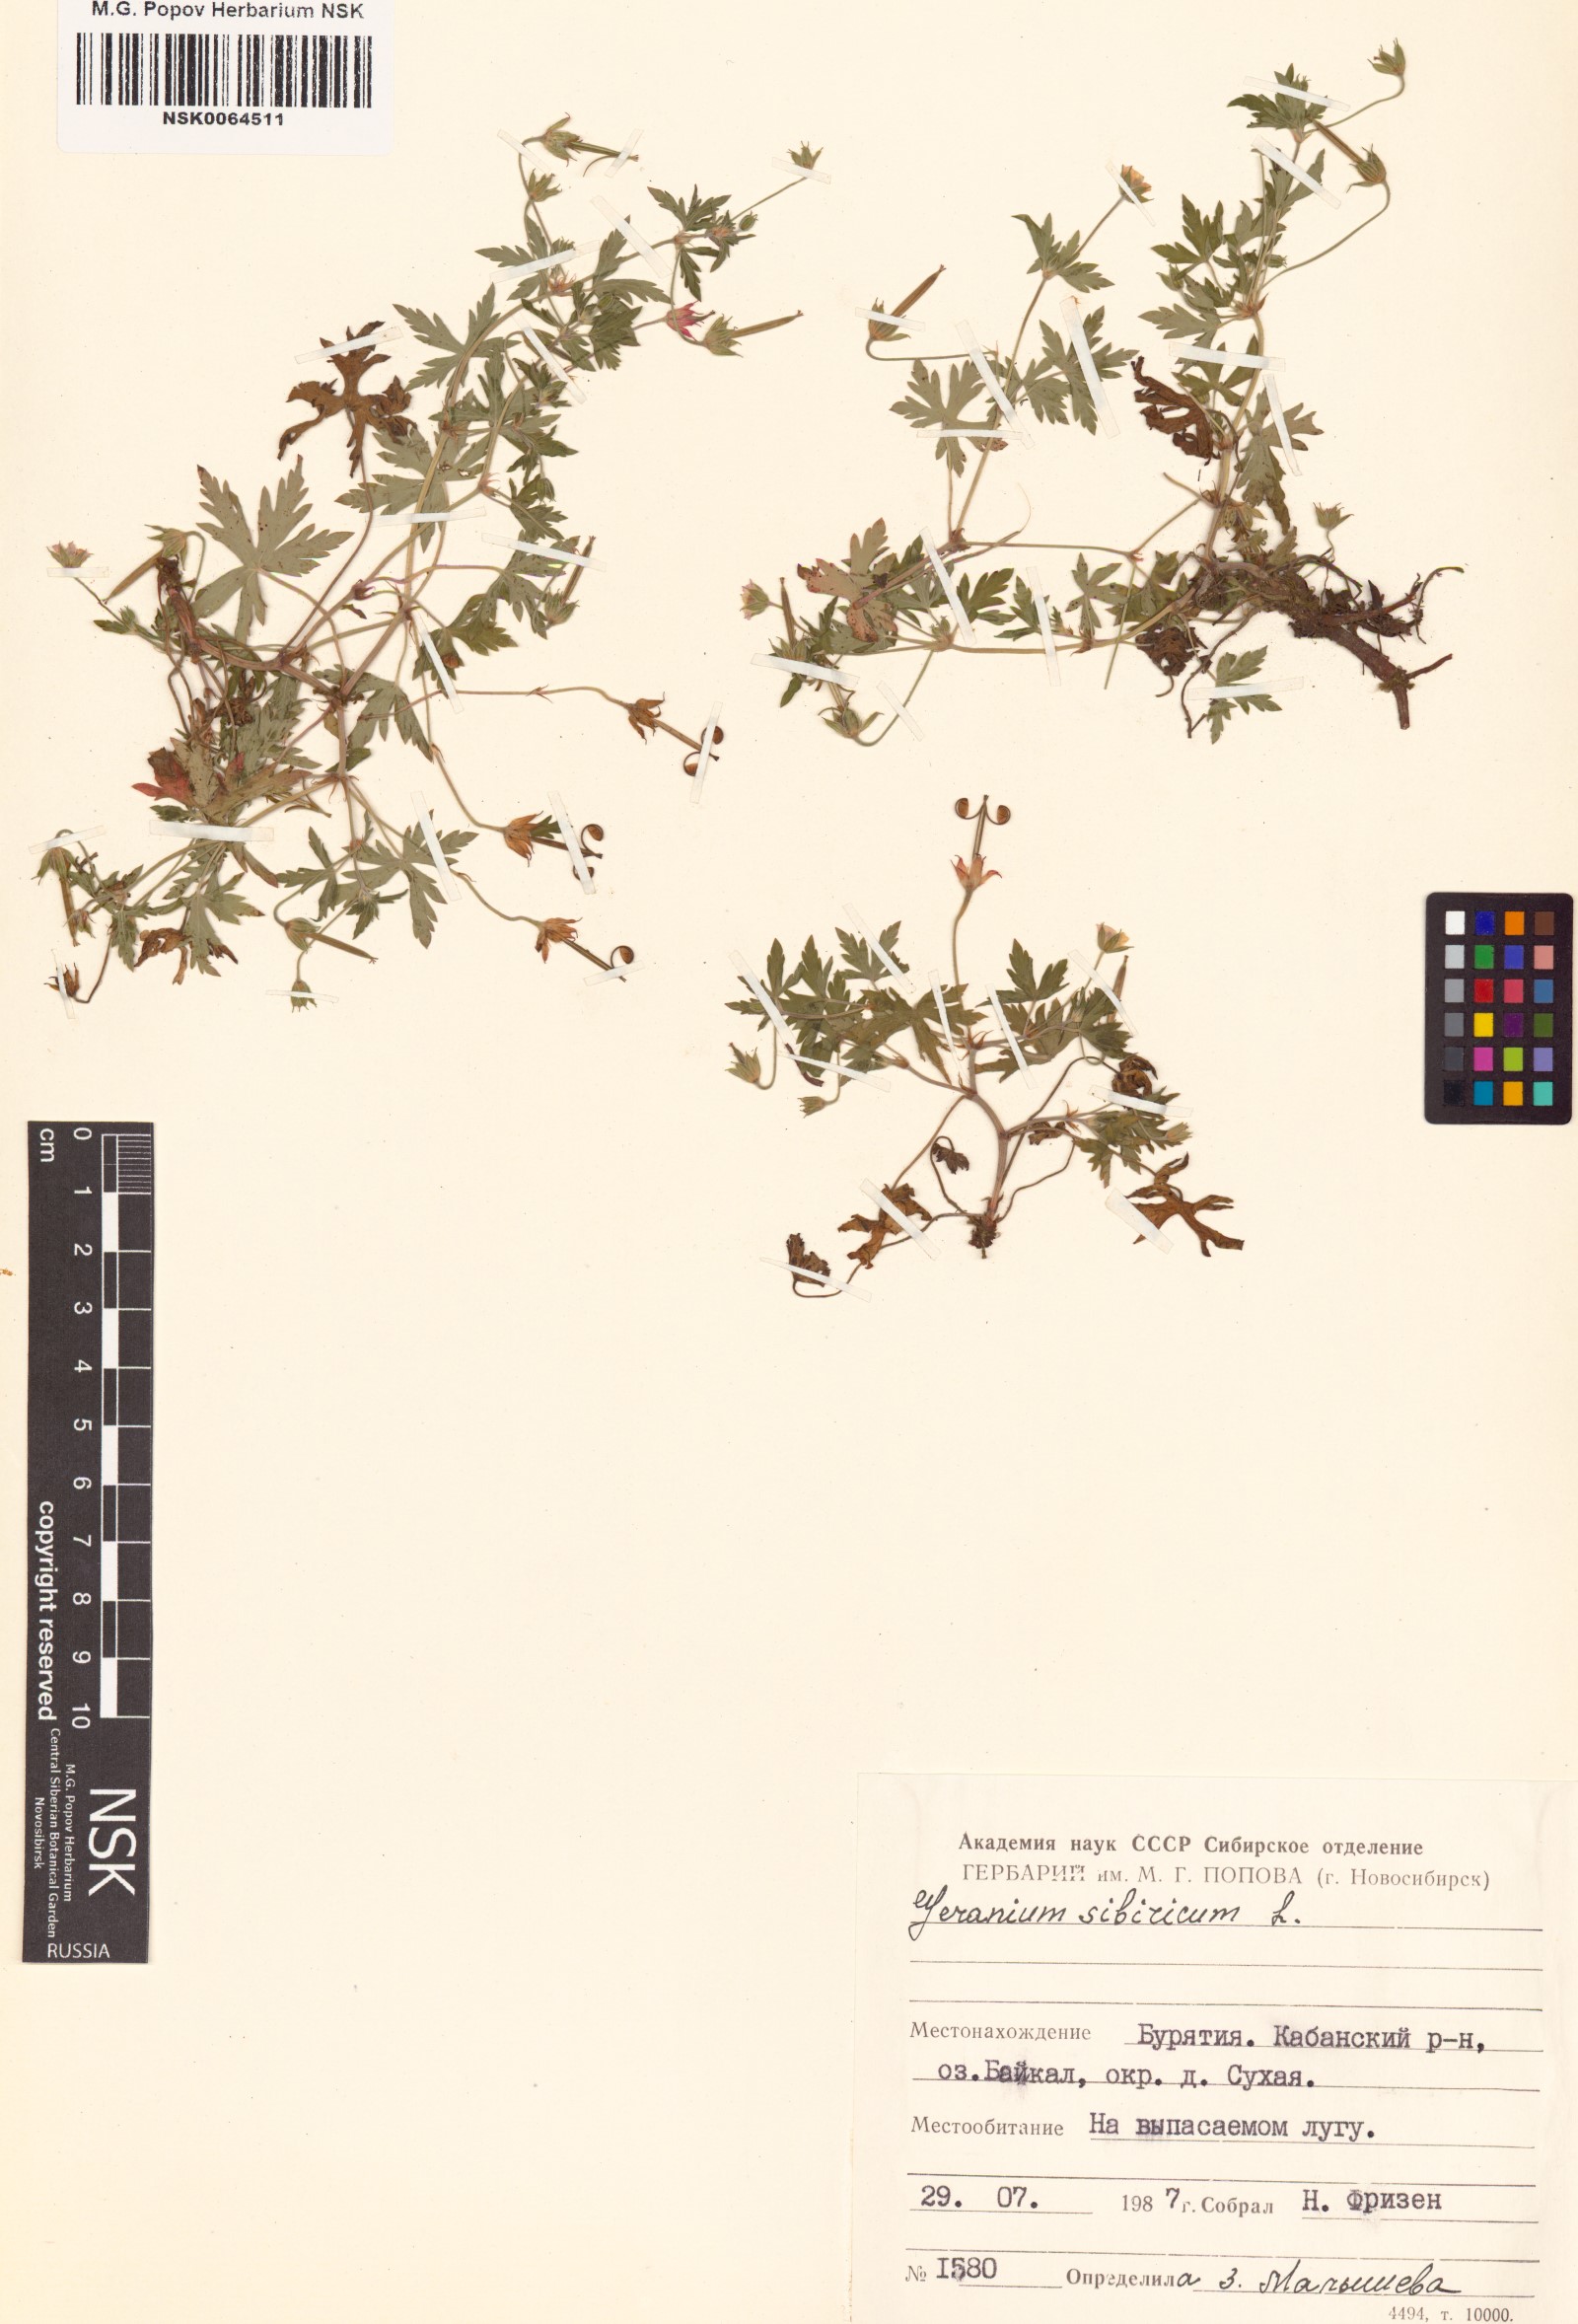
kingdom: Plantae
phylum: Tracheophyta
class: Magnoliopsida
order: Geraniales
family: Geraniaceae
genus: Geranium
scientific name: Geranium sibiricum
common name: Siberian crane's-bill
